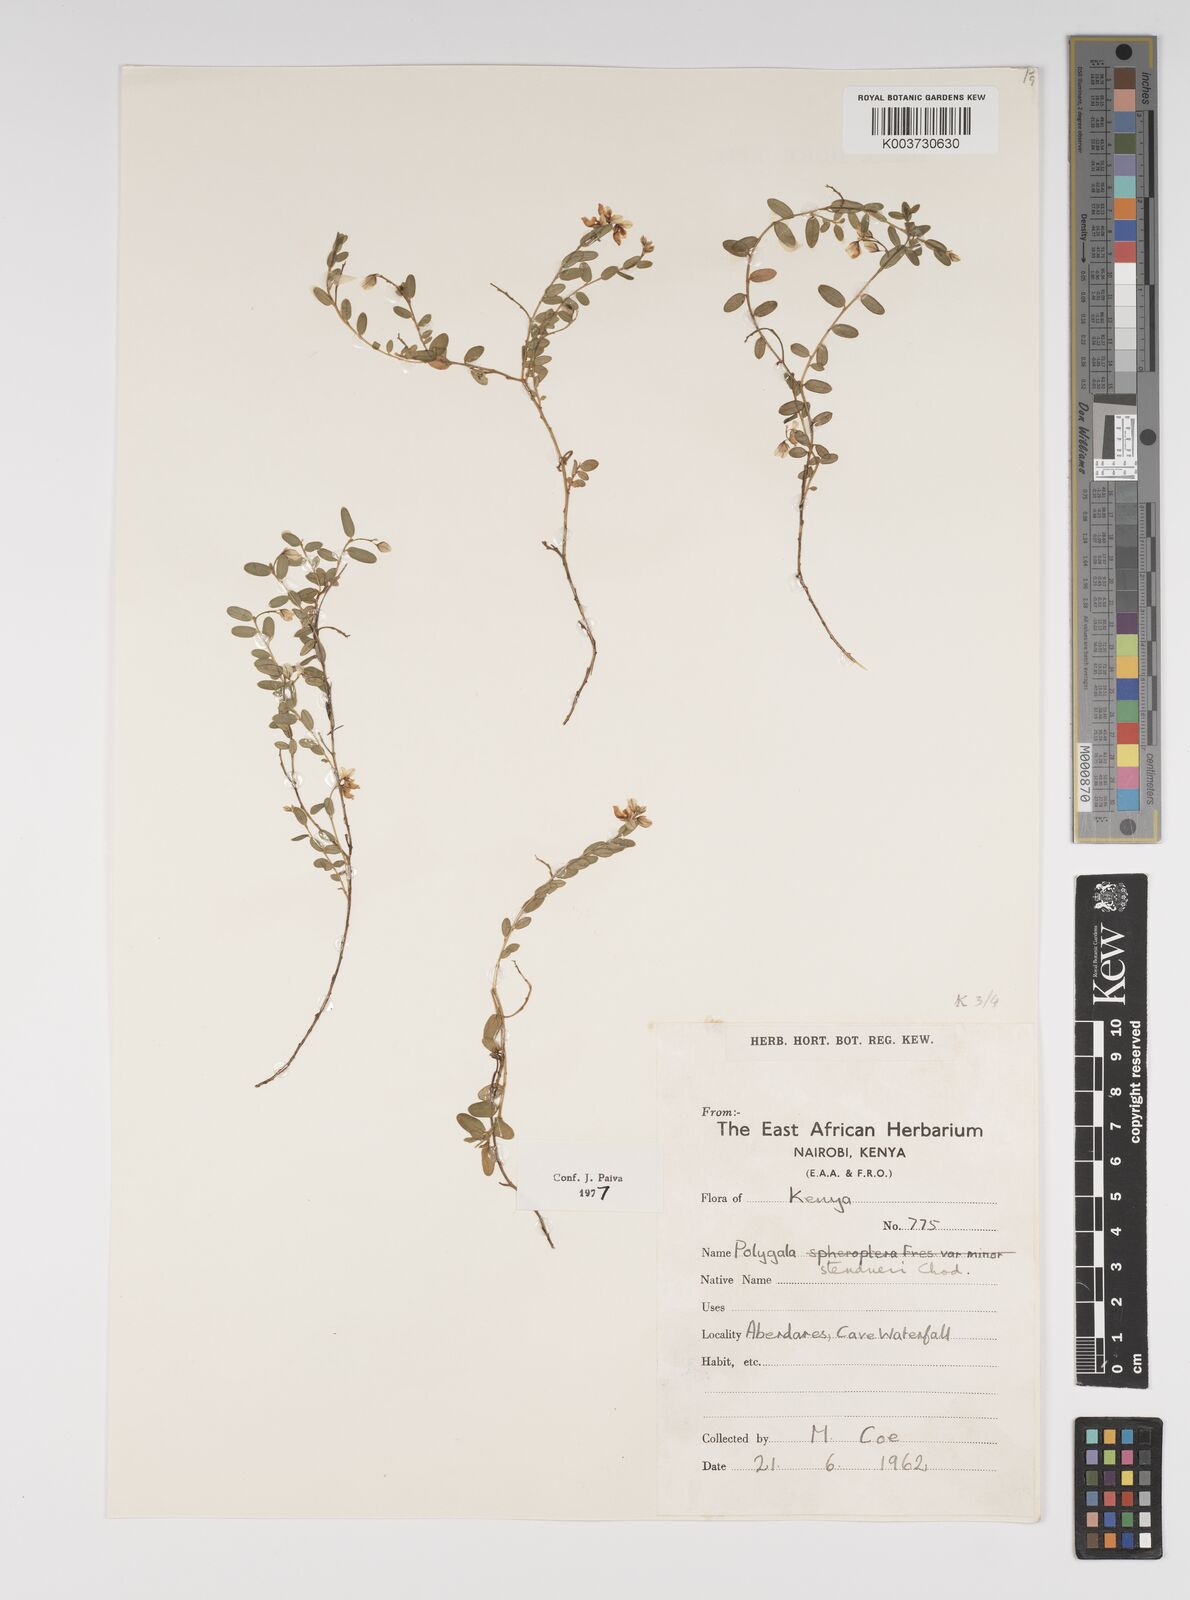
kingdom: Plantae
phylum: Tracheophyta
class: Magnoliopsida
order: Fabales
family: Polygalaceae
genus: Polygala
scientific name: Polygala steudneri
